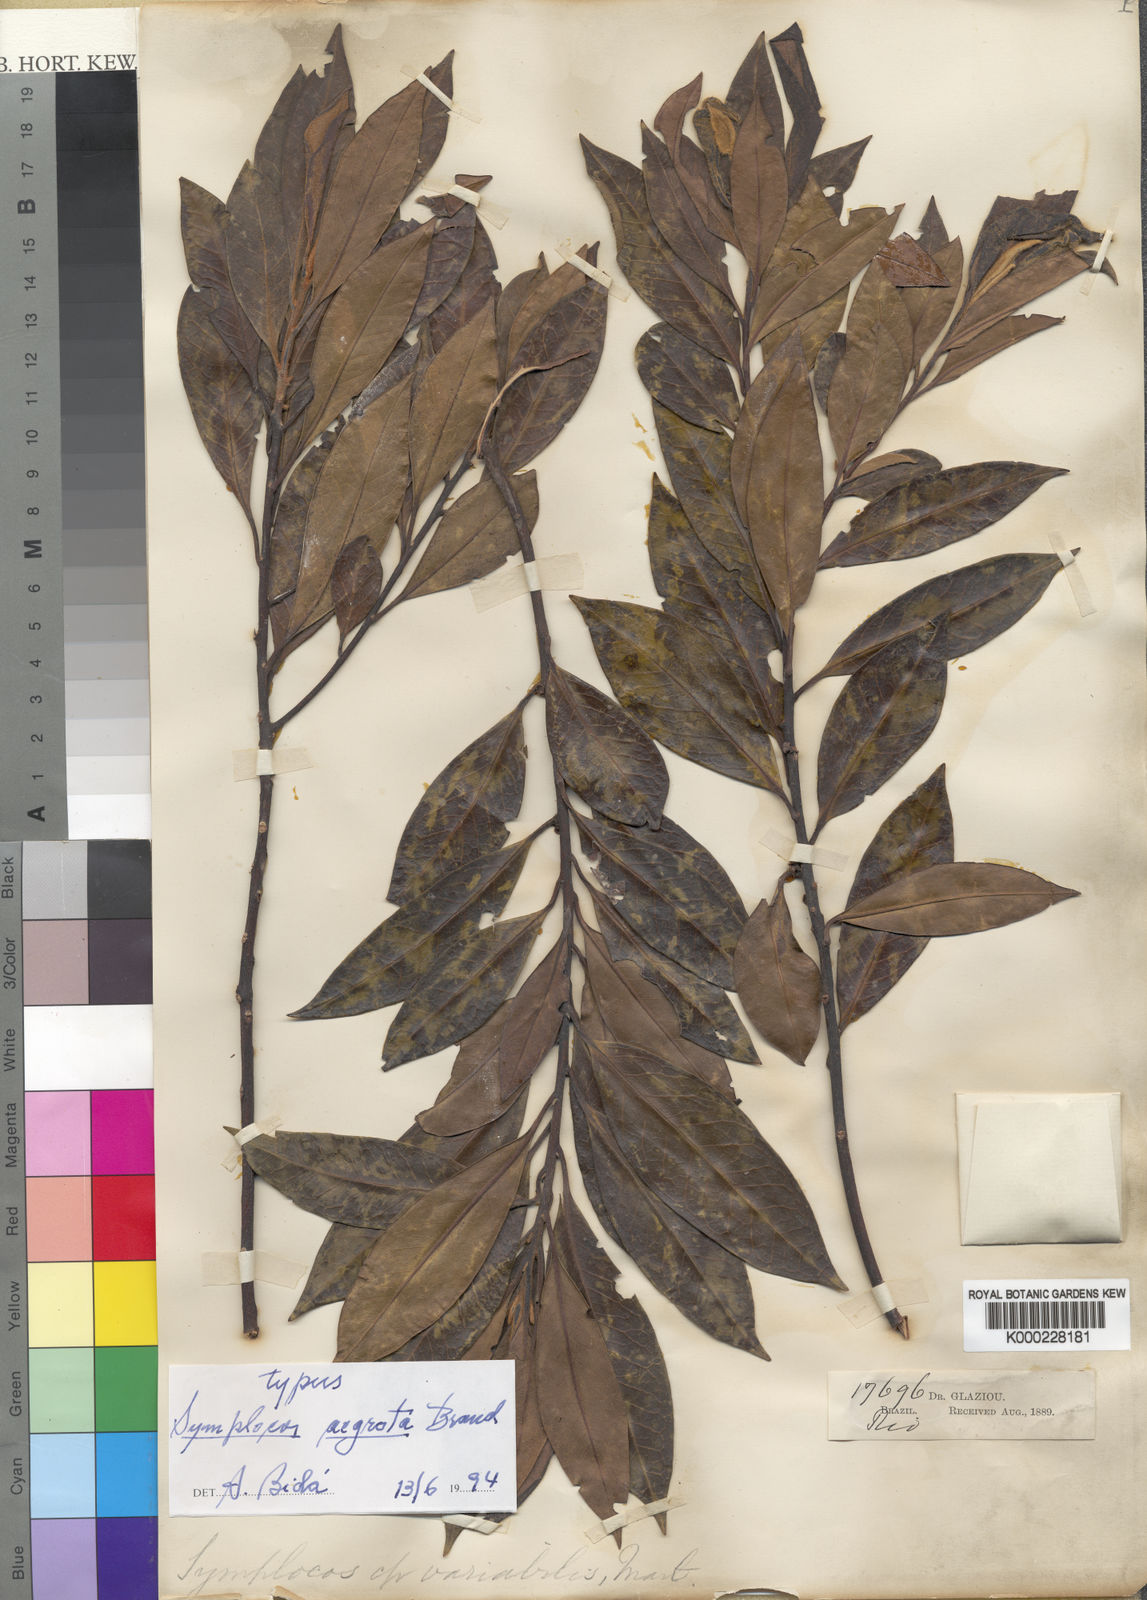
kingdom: Plantae
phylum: Tracheophyta
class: Magnoliopsida
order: Ericales
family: Symplocaceae
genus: Symplocos
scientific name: Symplocos falcata
